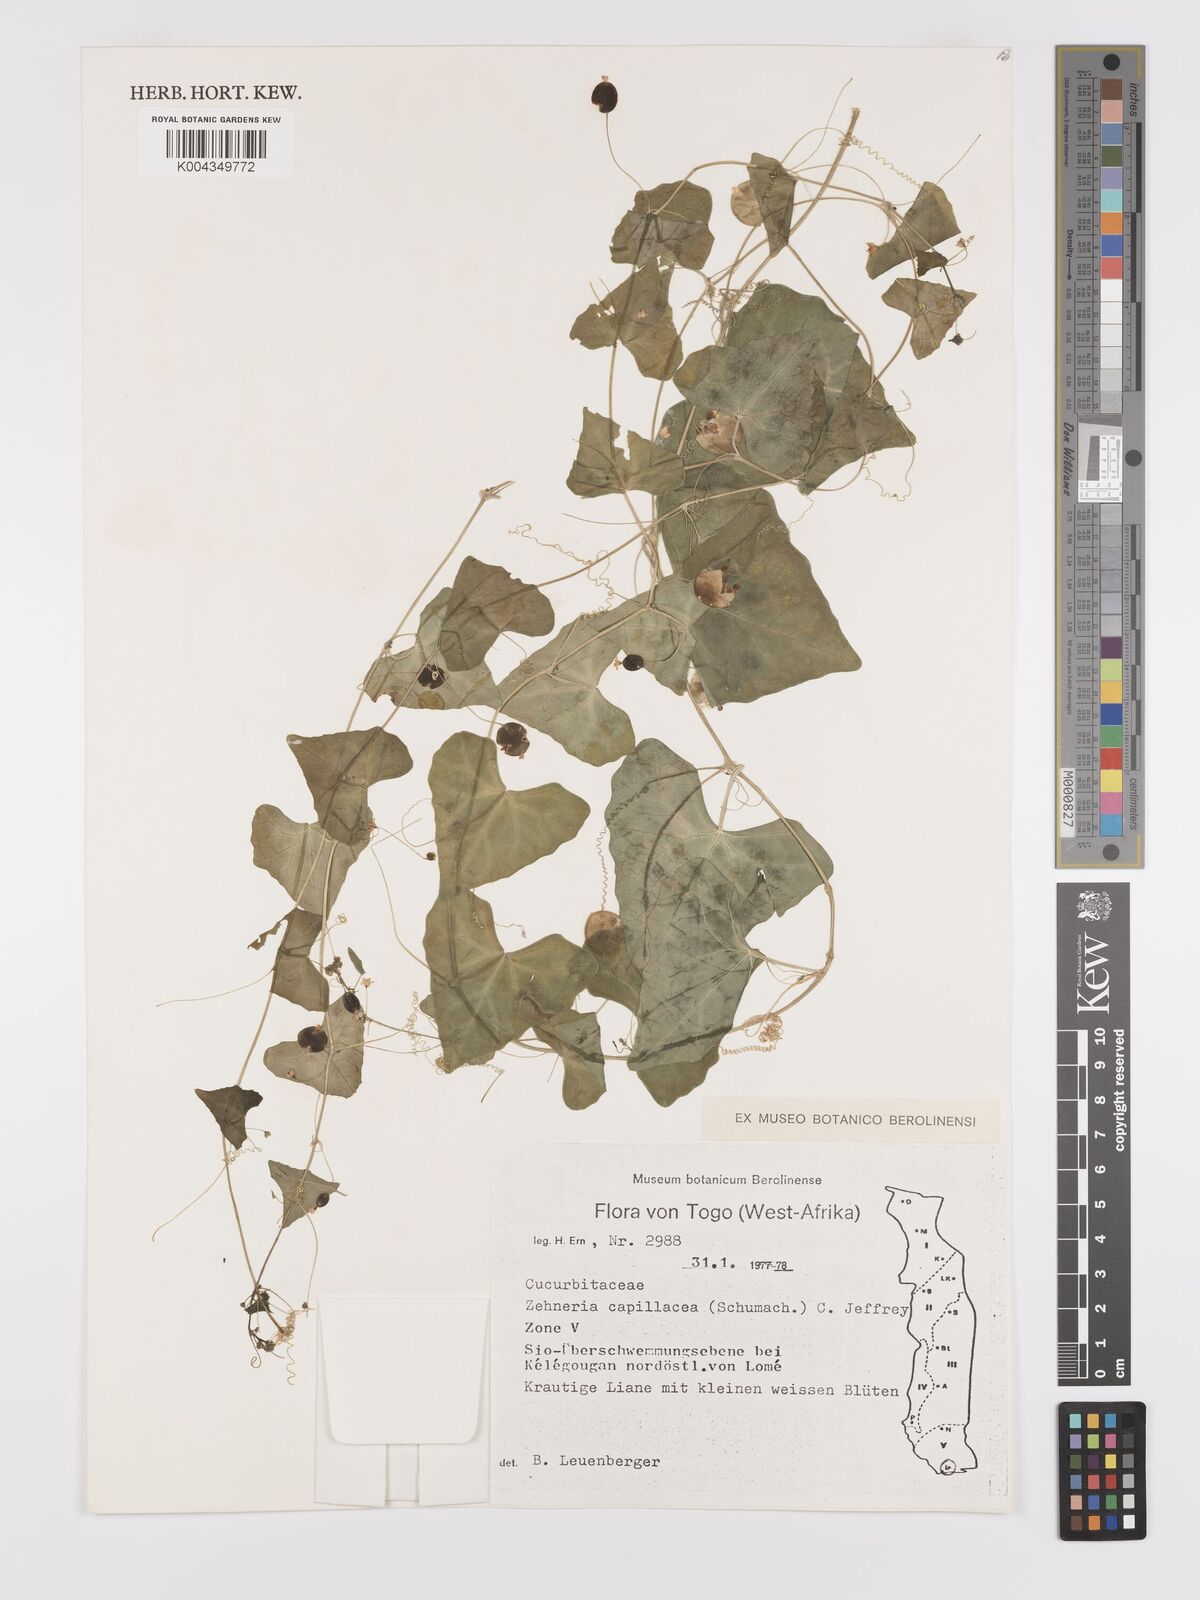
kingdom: Plantae
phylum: Tracheophyta
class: Magnoliopsida
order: Cucurbitales
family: Cucurbitaceae
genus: Zehneria
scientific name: Zehneria capillacea
